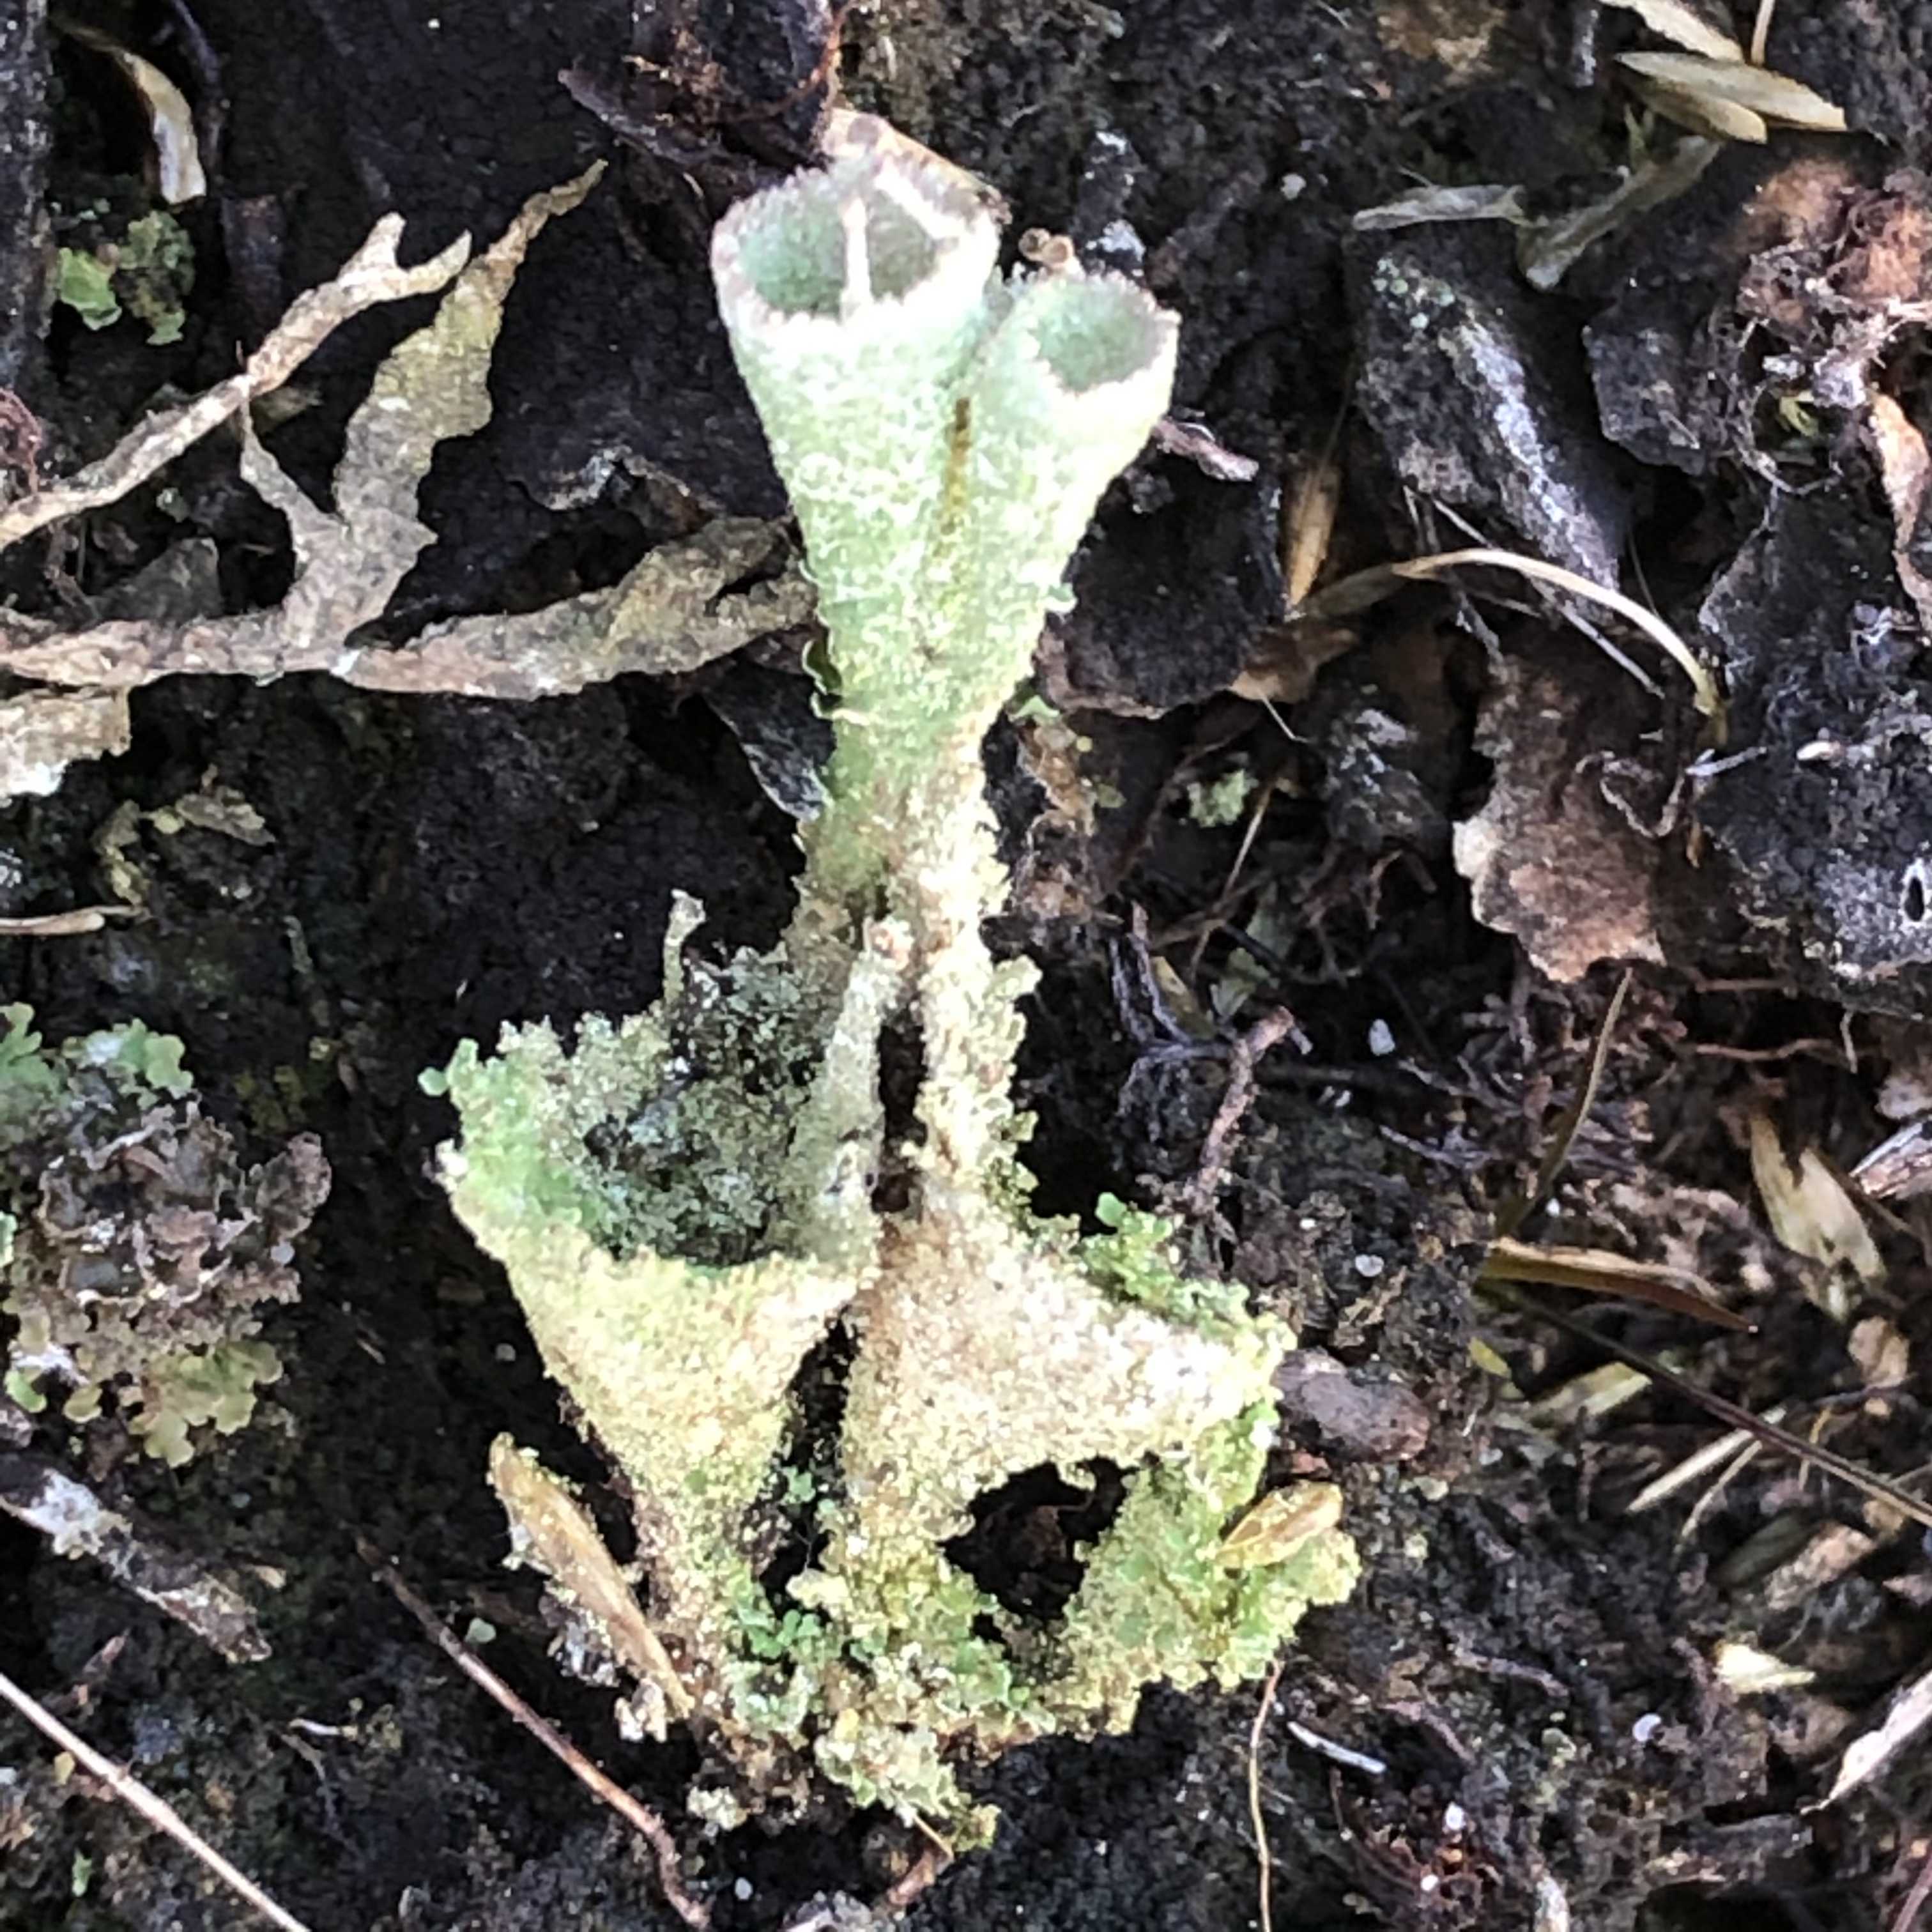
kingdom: Fungi
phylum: Ascomycota
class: Lecanoromycetes
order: Lecanorales
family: Cladoniaceae
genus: Cladonia
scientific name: Cladonia
